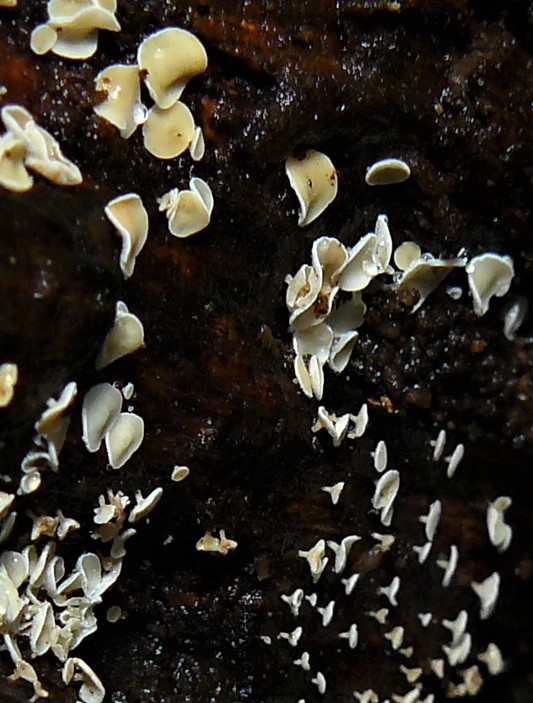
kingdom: Fungi
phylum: Ascomycota
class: Leotiomycetes
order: Helotiales
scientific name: Helotiales
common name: stilkskiveordenen
